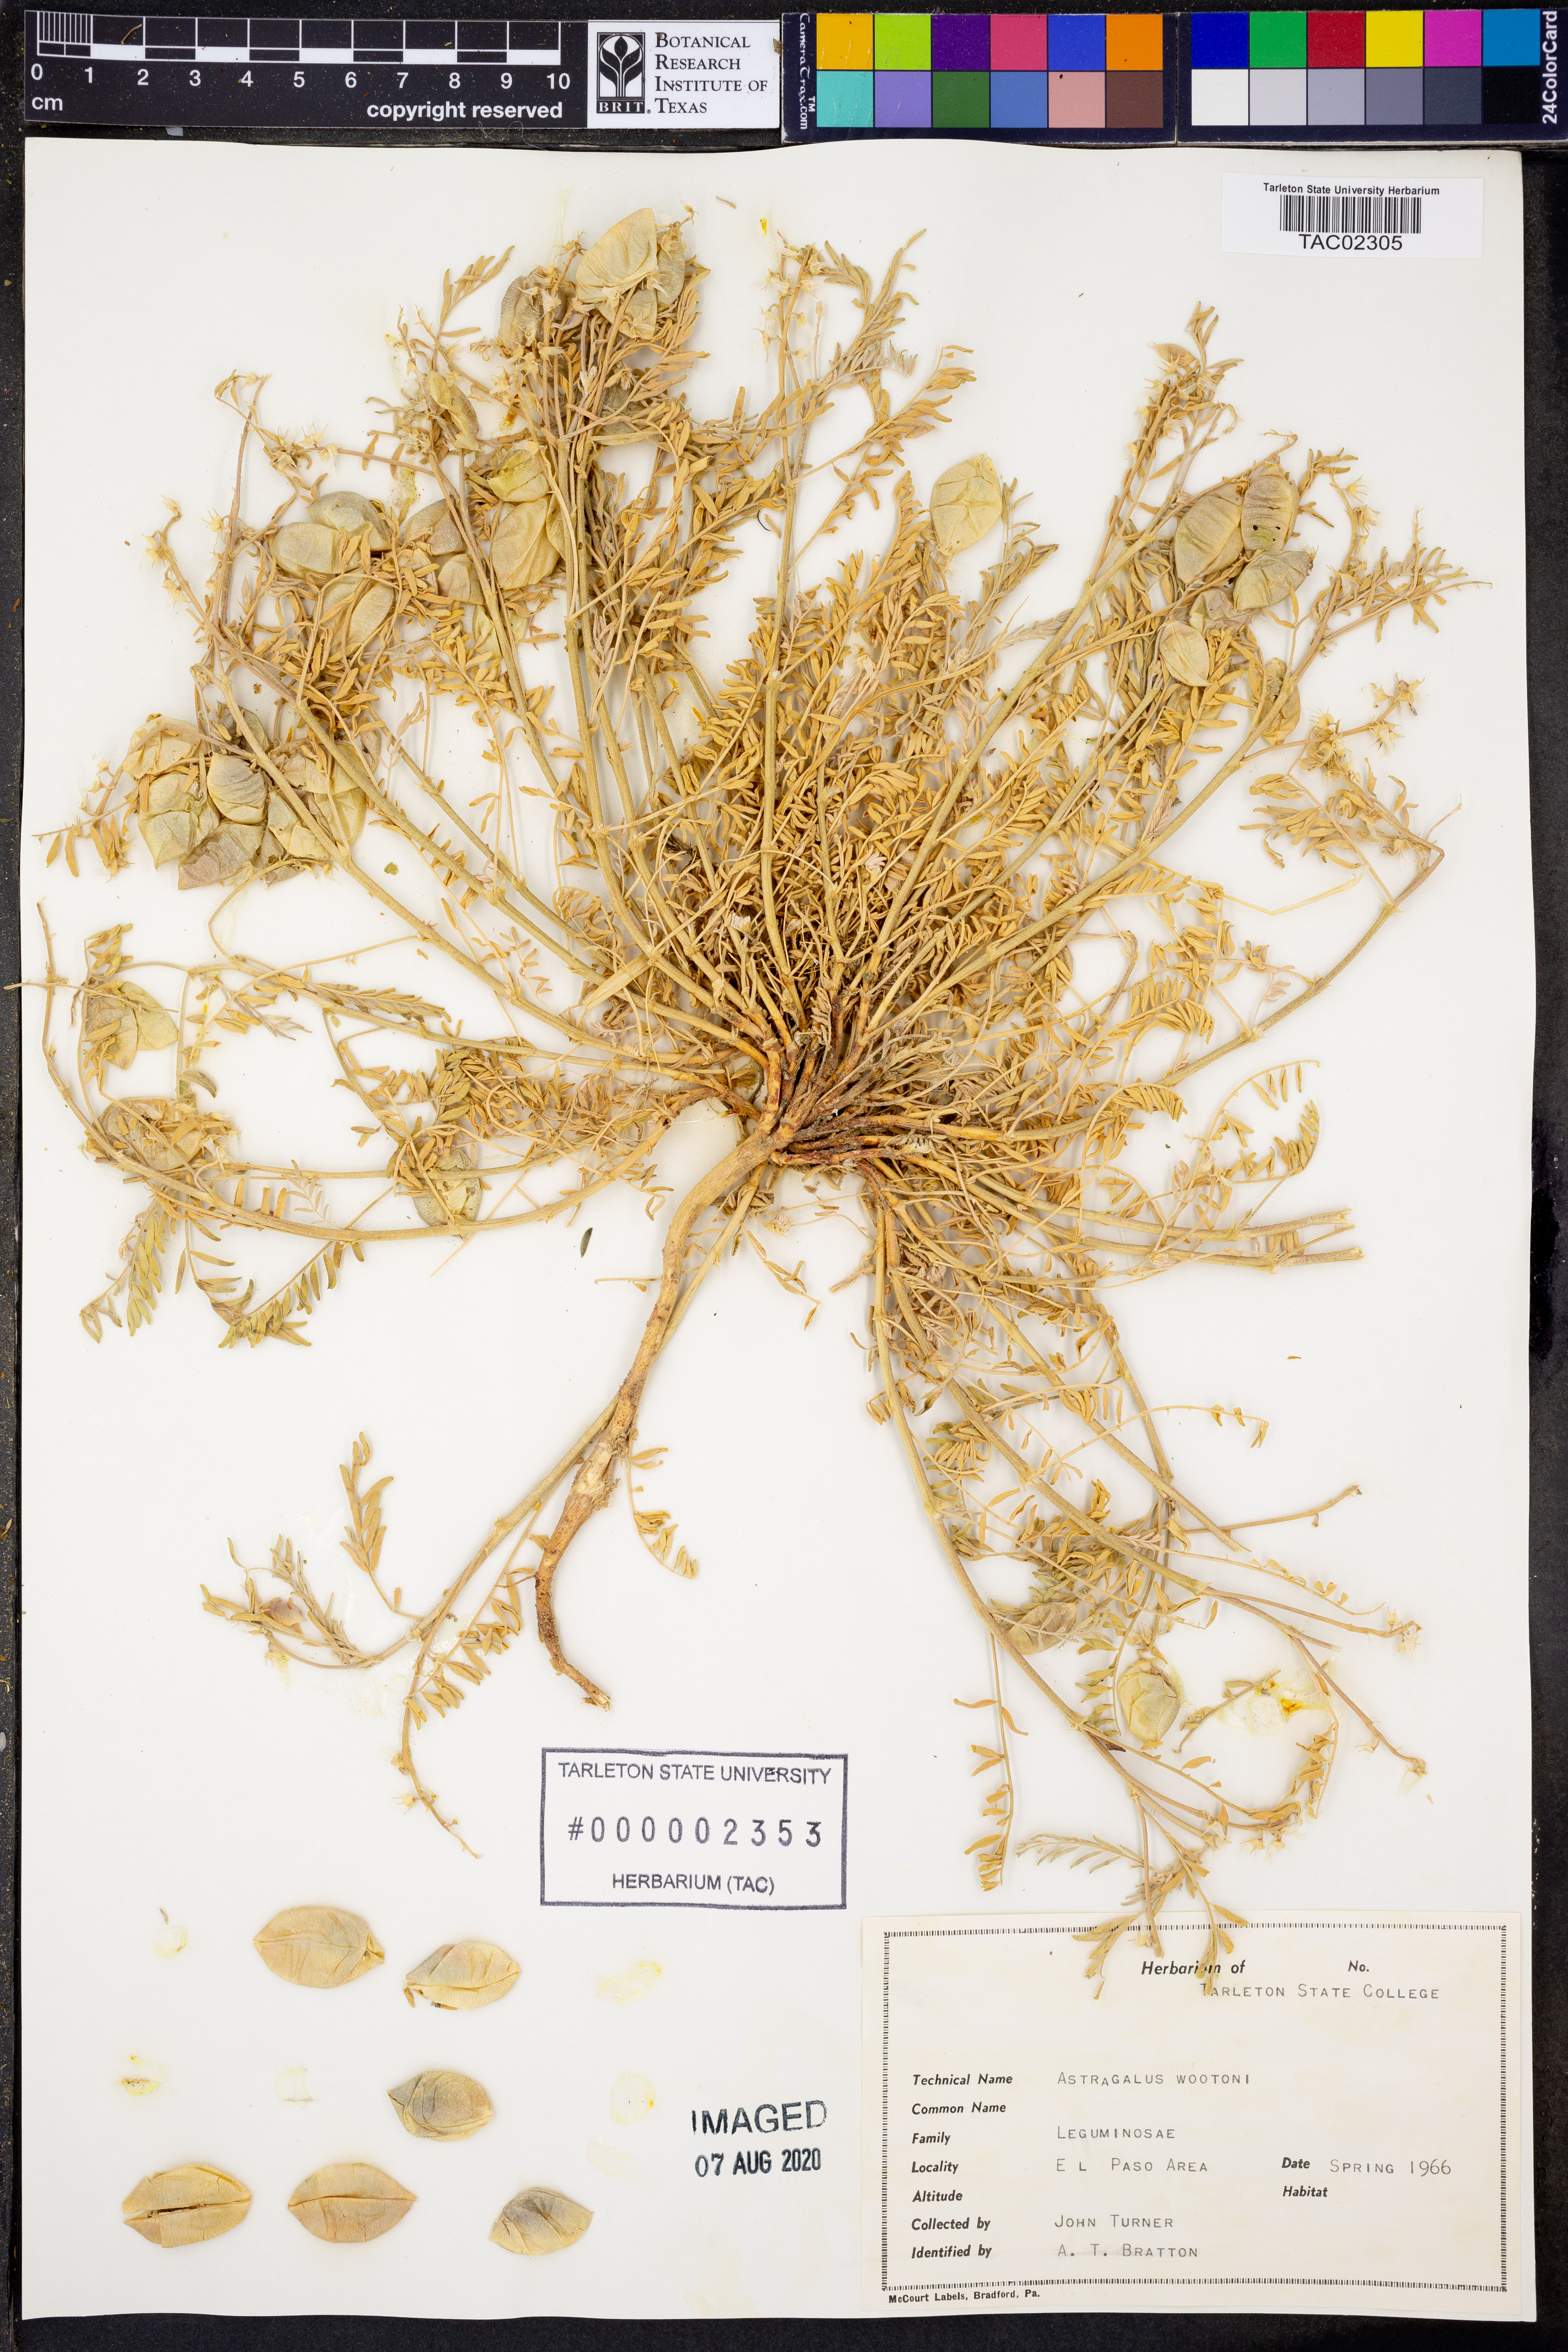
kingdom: Plantae
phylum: Tracheophyta
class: Magnoliopsida
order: Fabales
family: Fabaceae
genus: Astragalus
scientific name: Astragalus wootonii
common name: Wooton's milk-vetch
